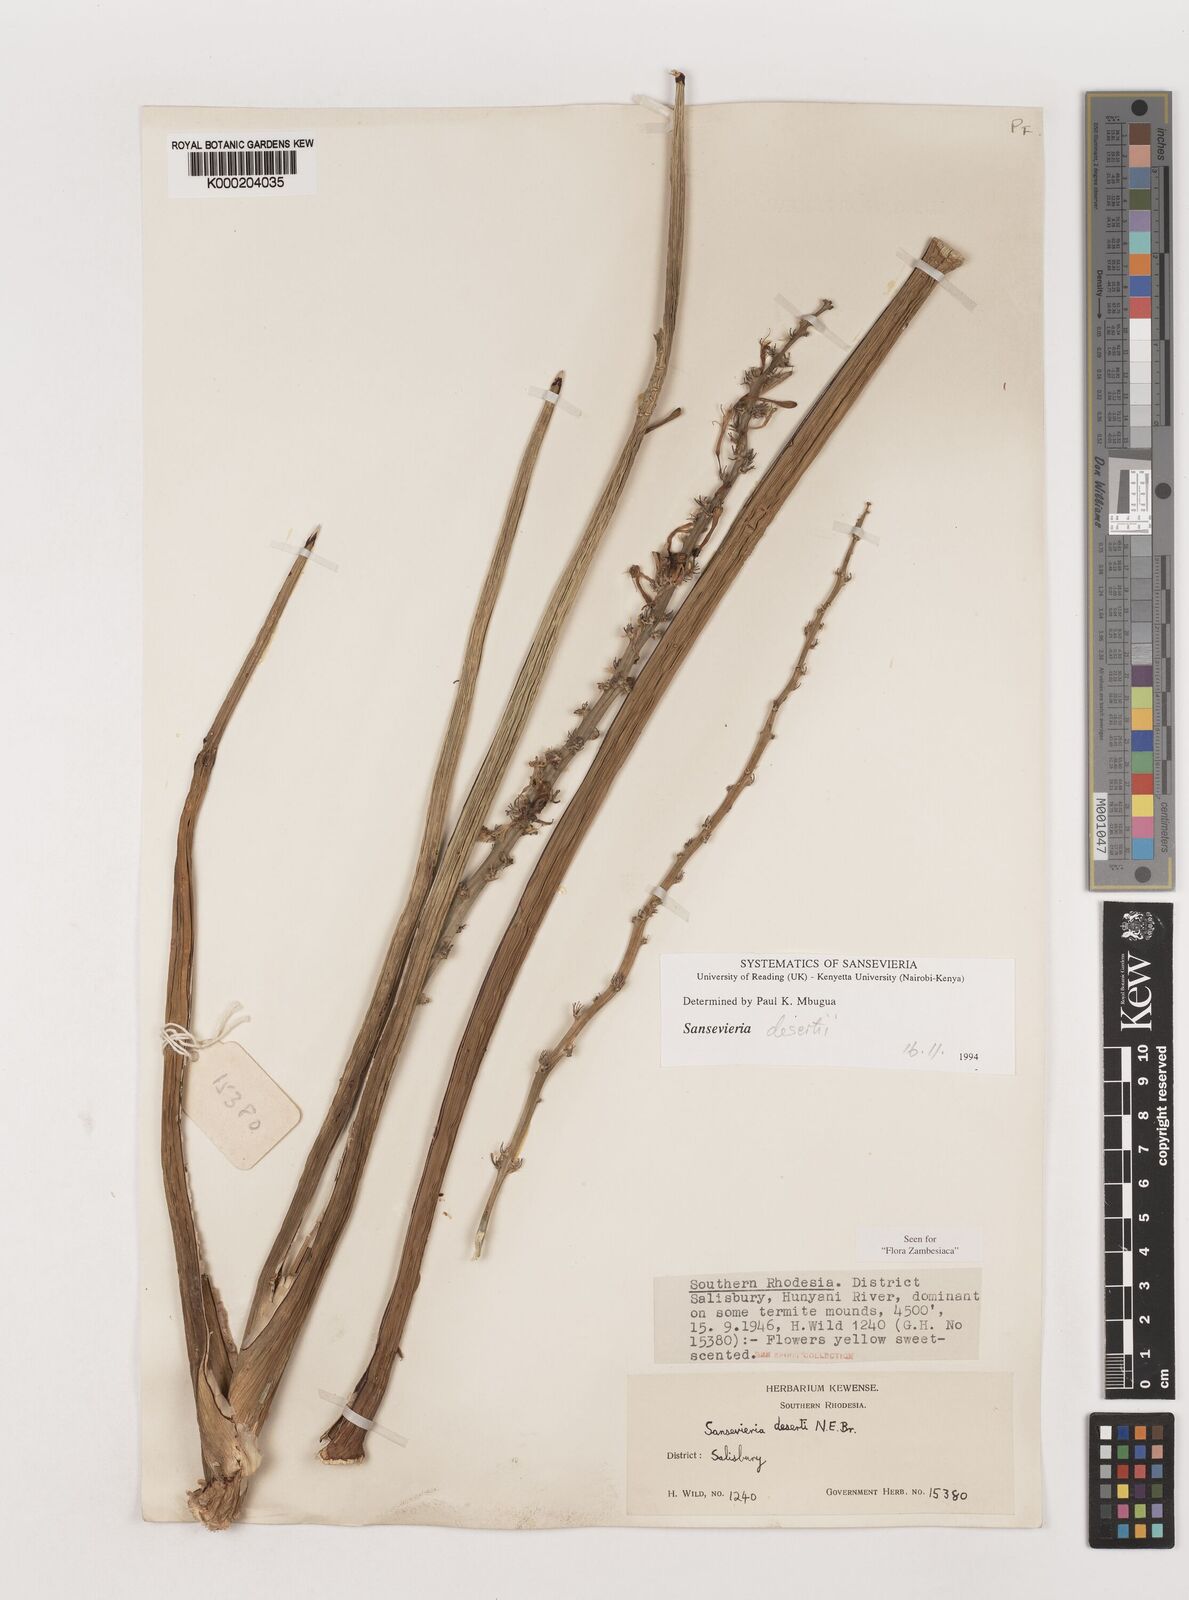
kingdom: Plantae
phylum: Tracheophyta
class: Liliopsida
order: Asparagales
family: Asparagaceae
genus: Dracaena
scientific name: Dracaena pearsonii
